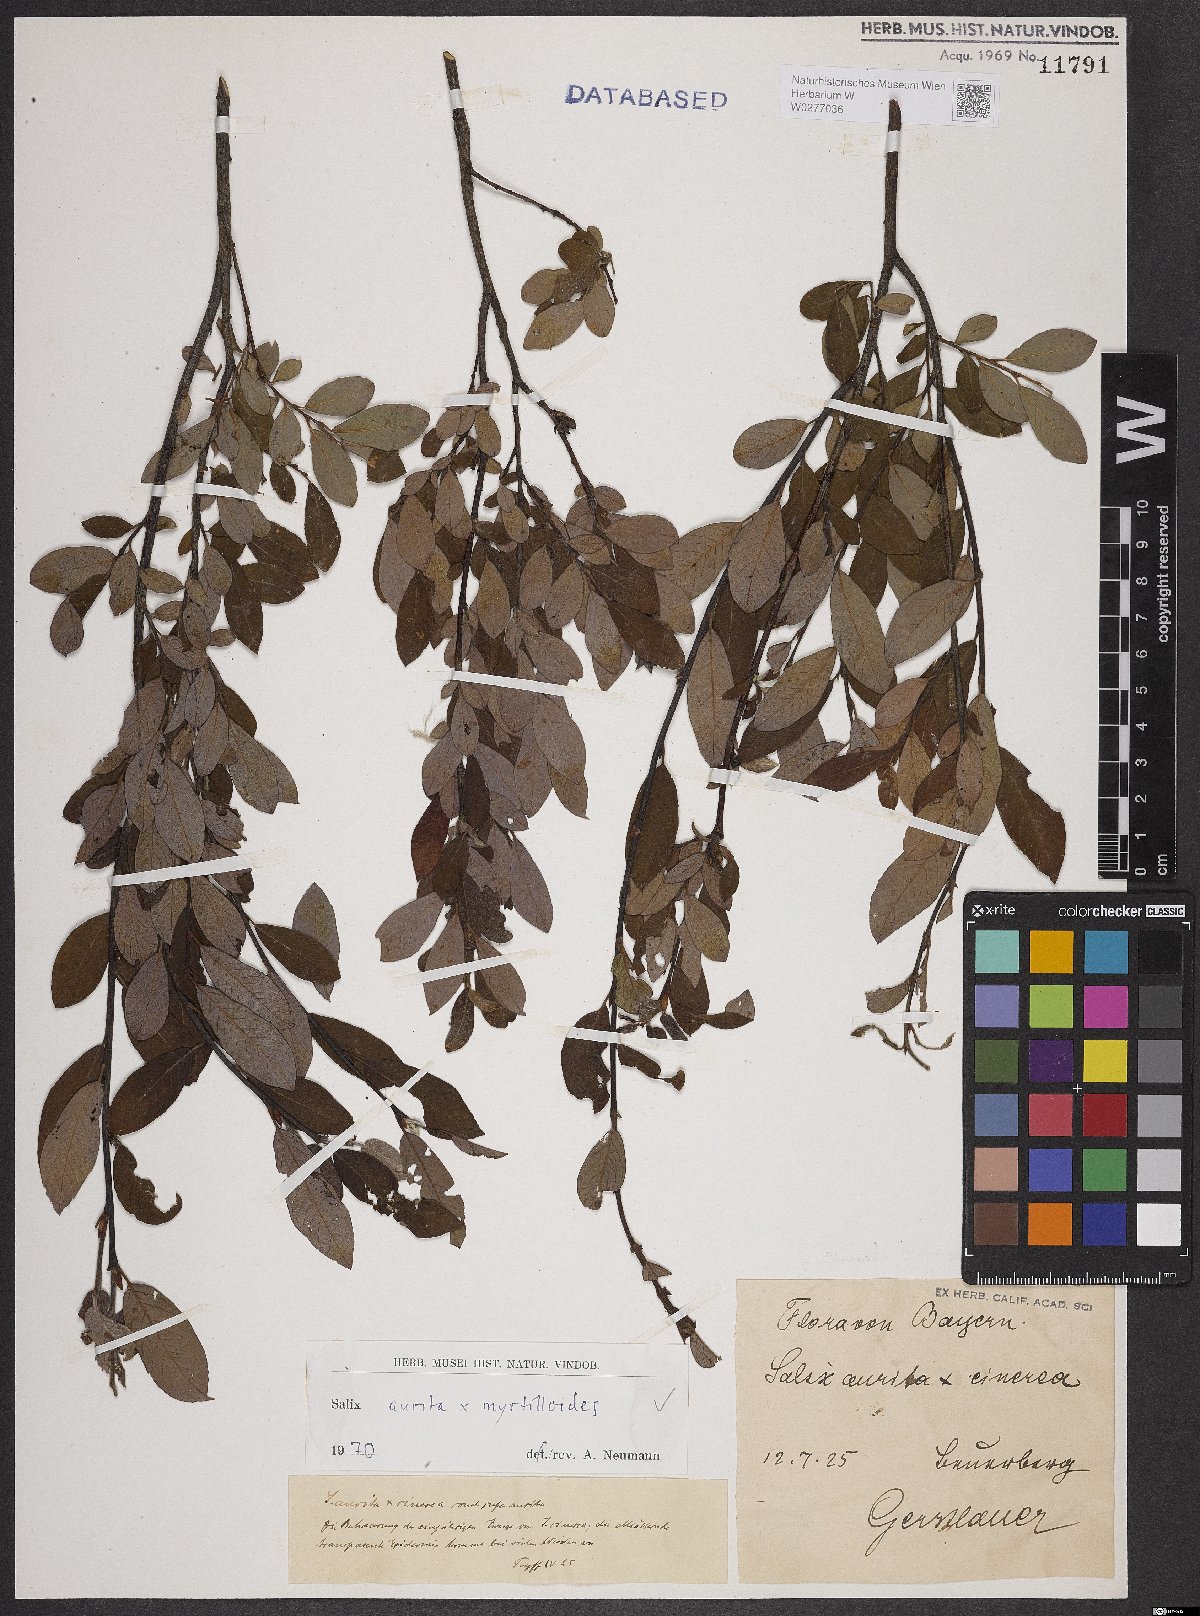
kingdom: Plantae
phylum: Tracheophyta
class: Magnoliopsida
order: Malpighiales
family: Salicaceae
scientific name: Salicaceae
